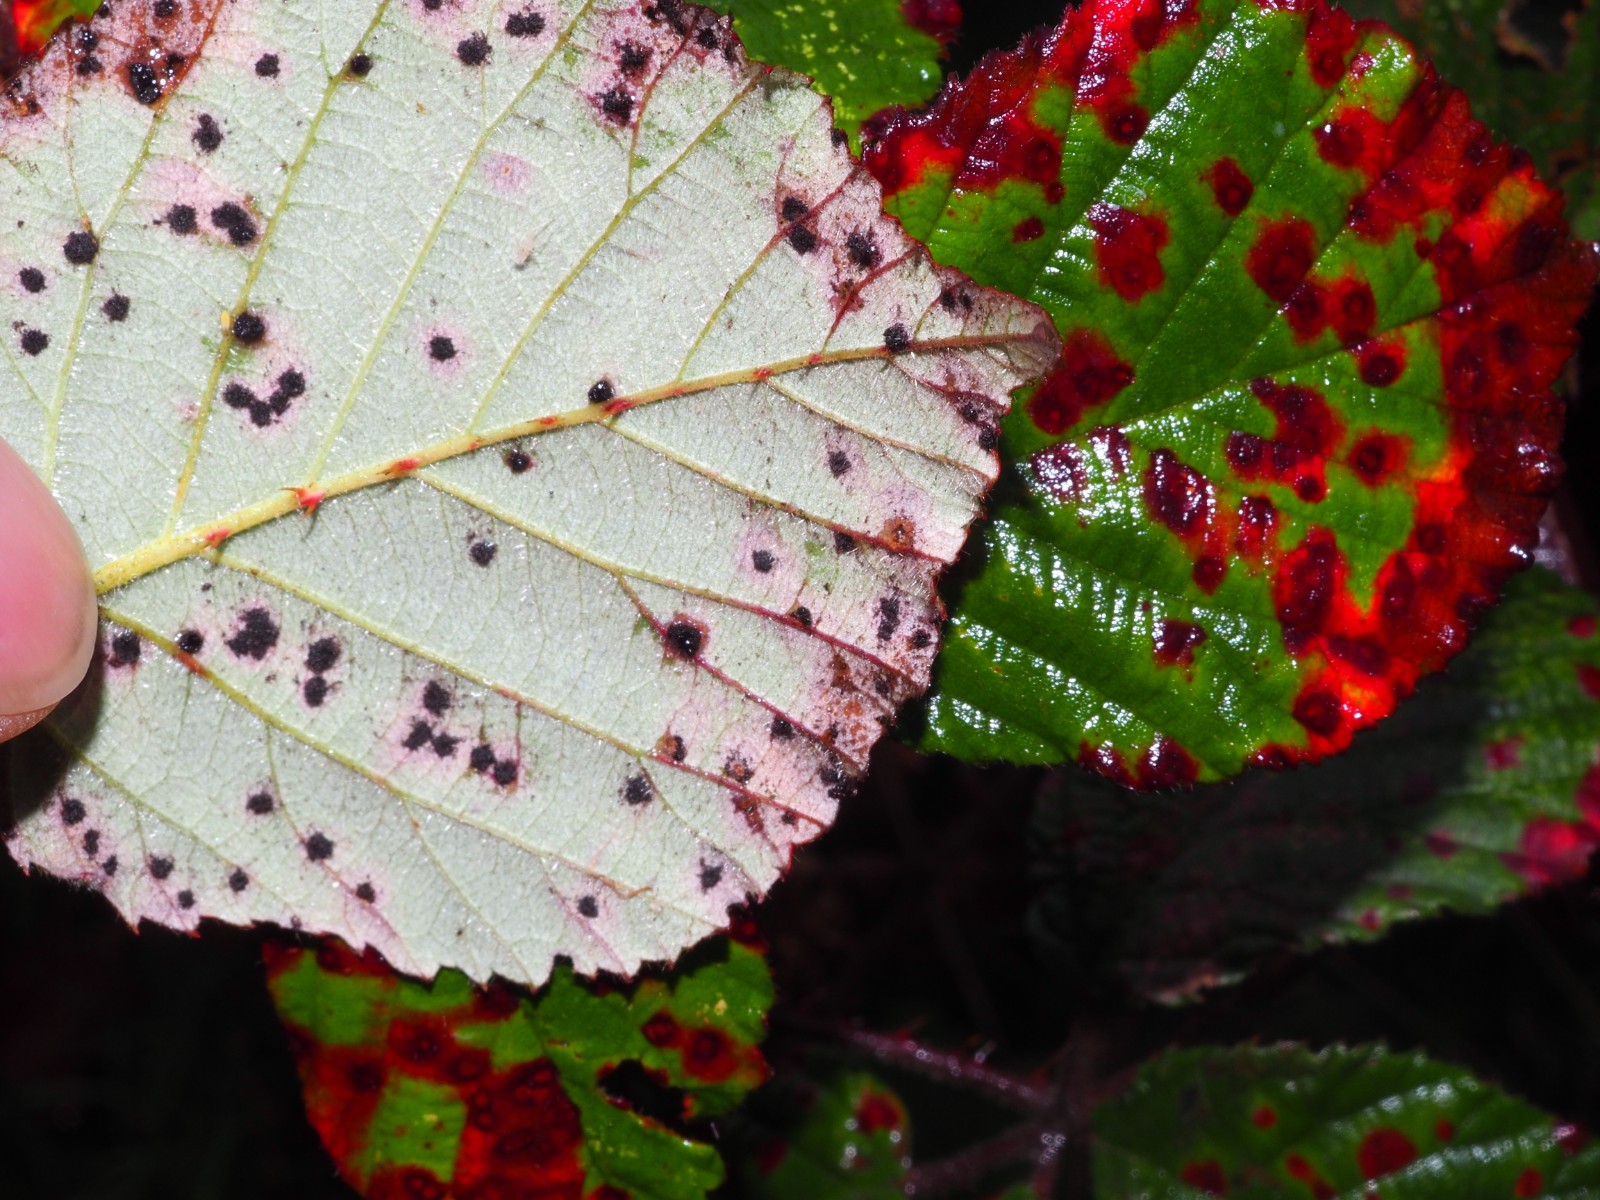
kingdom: Fungi
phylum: Basidiomycota
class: Pucciniomycetes
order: Pucciniales
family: Phragmidiaceae
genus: Phragmidium
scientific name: Phragmidium violaceum
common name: violet flercellerust
